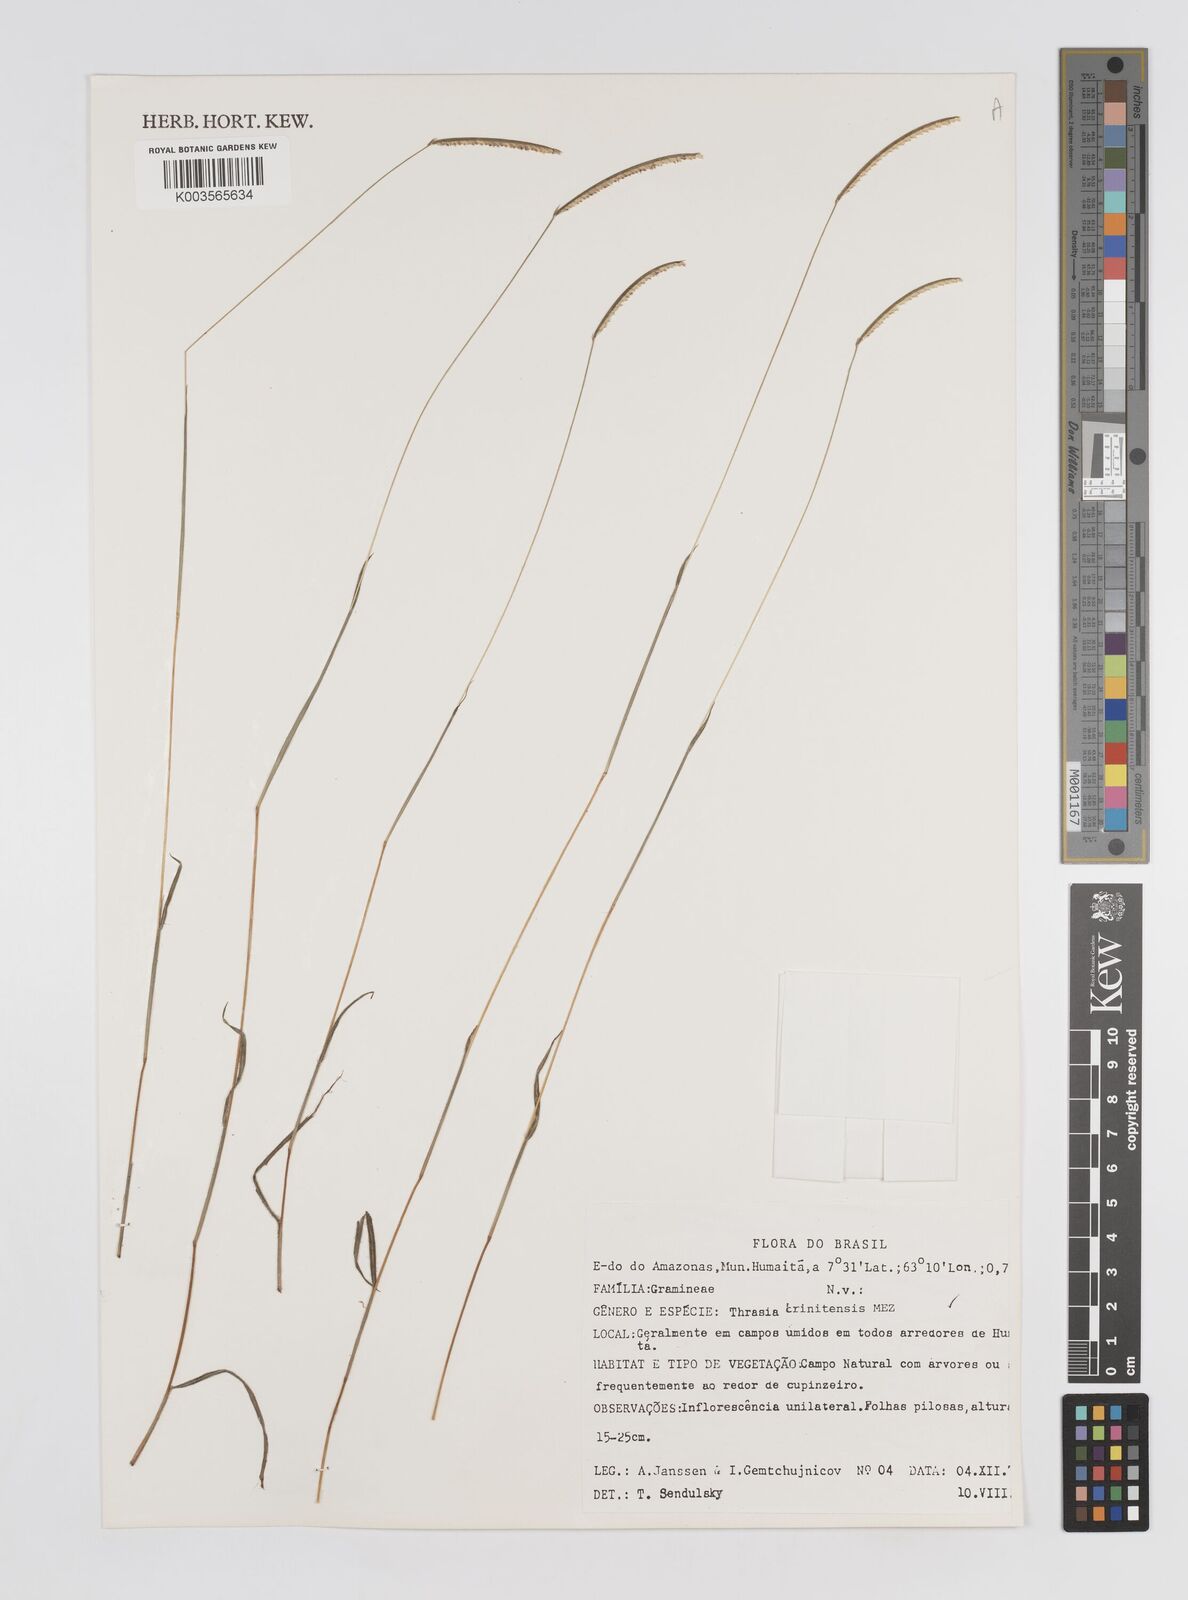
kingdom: Plantae
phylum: Tracheophyta
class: Liliopsida
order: Poales
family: Poaceae
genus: Paspalum
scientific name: Paspalum trinitense
